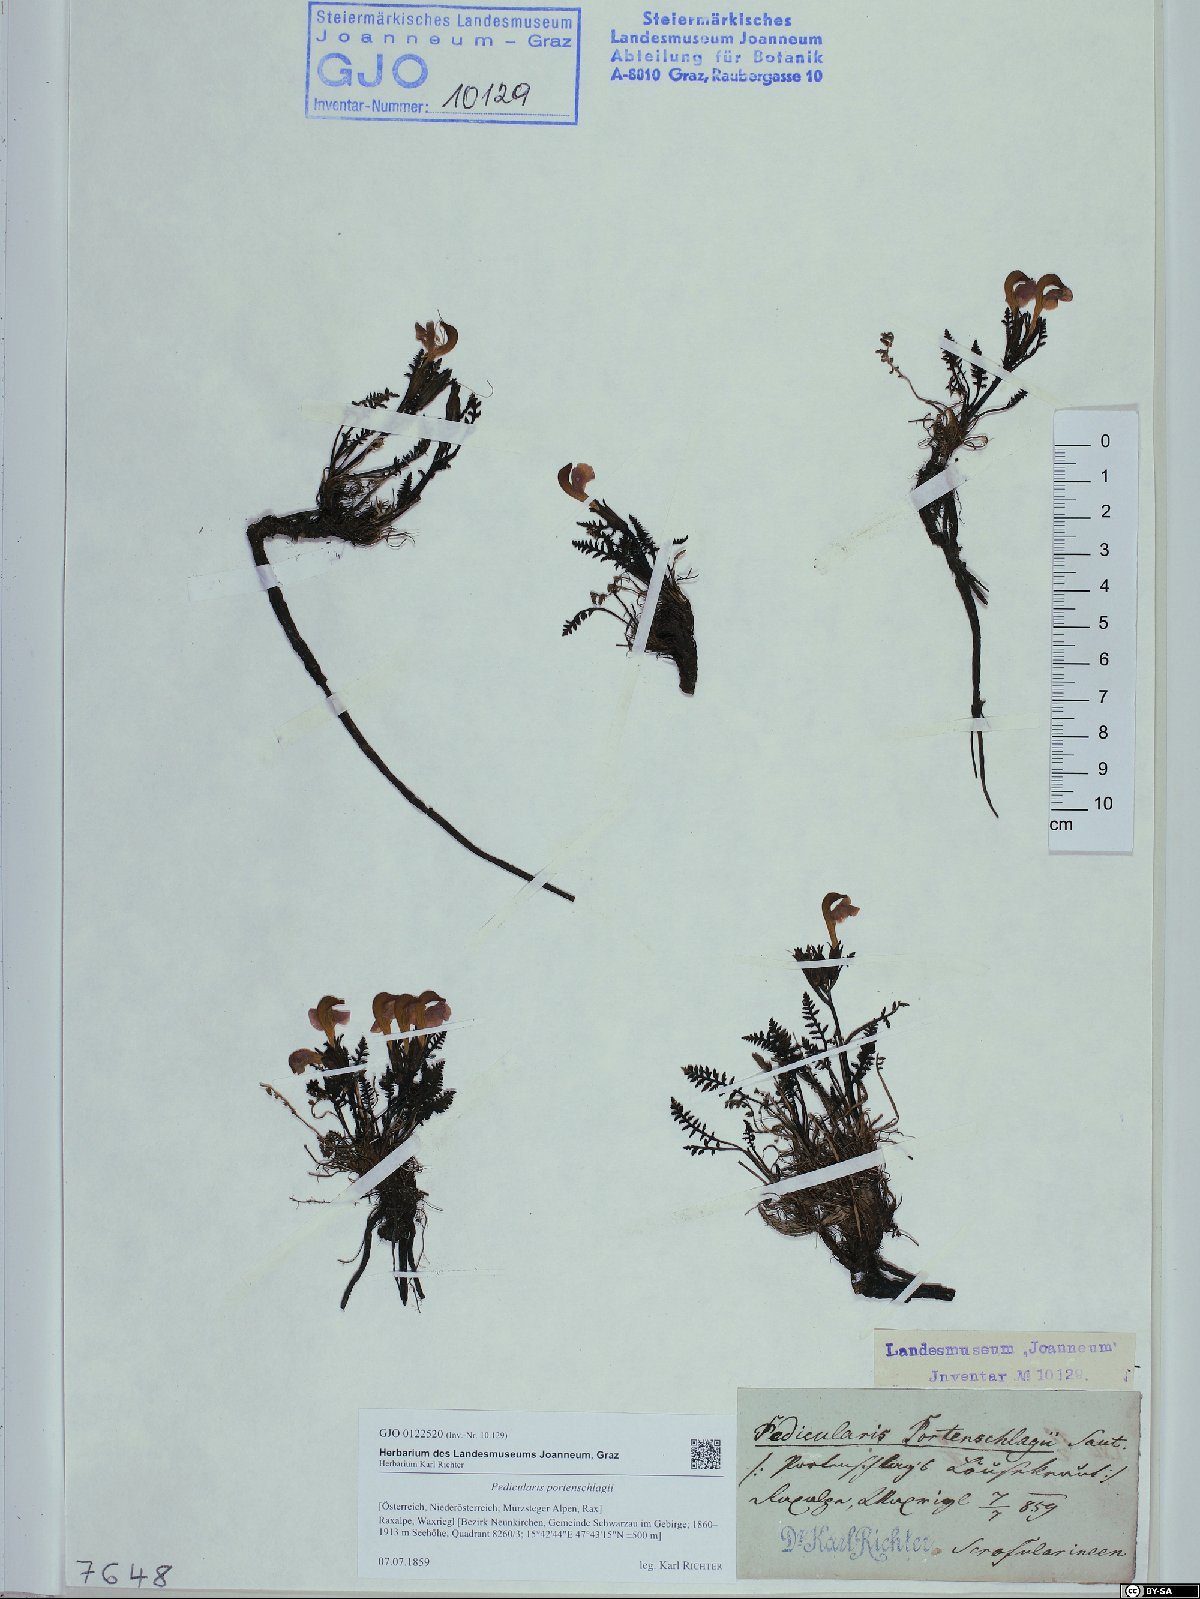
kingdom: Plantae
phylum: Tracheophyta
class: Magnoliopsida
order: Lamiales
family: Orobanchaceae
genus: Pedicularis
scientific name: Pedicularis portenschlagii
